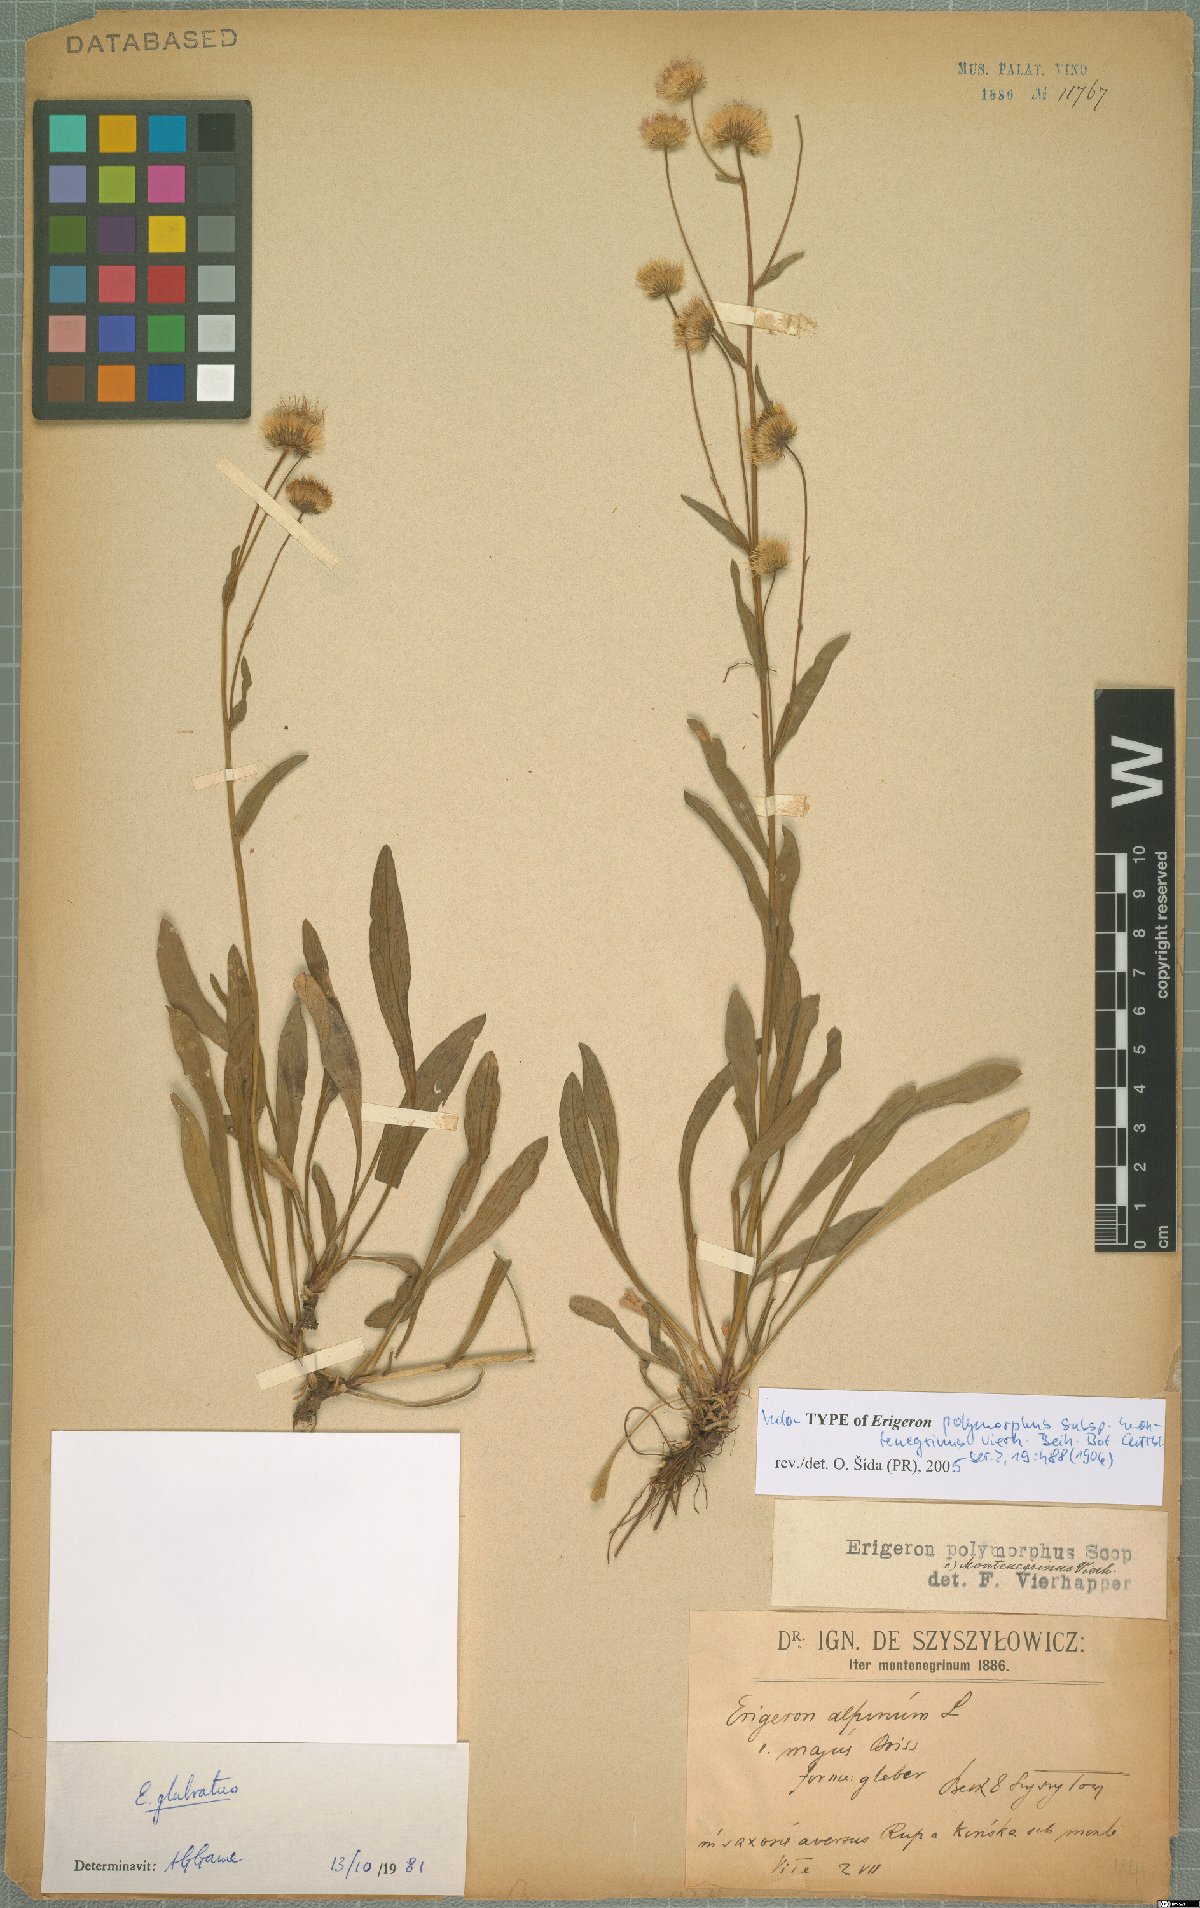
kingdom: Plantae
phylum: Tracheophyta
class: Magnoliopsida
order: Asterales
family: Asteraceae
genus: Erigeron
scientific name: Erigeron glabratus
